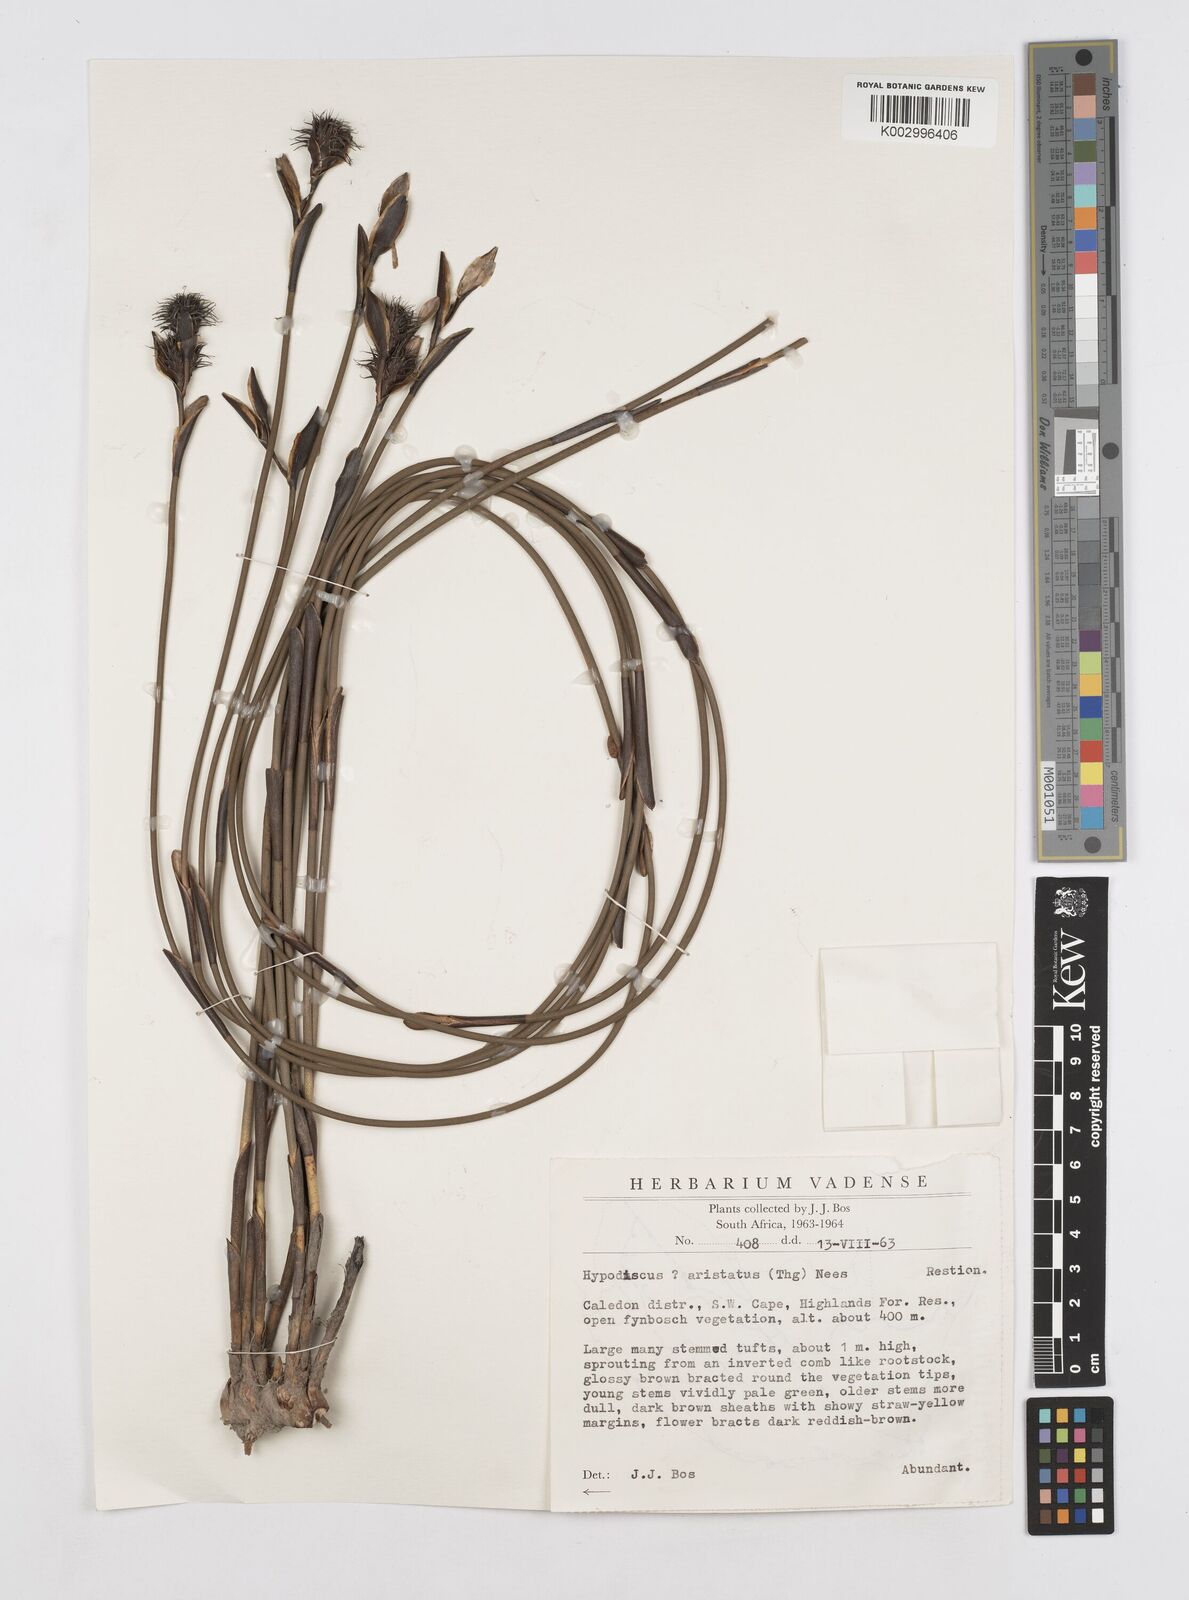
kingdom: Plantae
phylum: Tracheophyta
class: Liliopsida
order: Poales
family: Restionaceae
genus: Hypodiscus
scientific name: Hypodiscus aristatus
